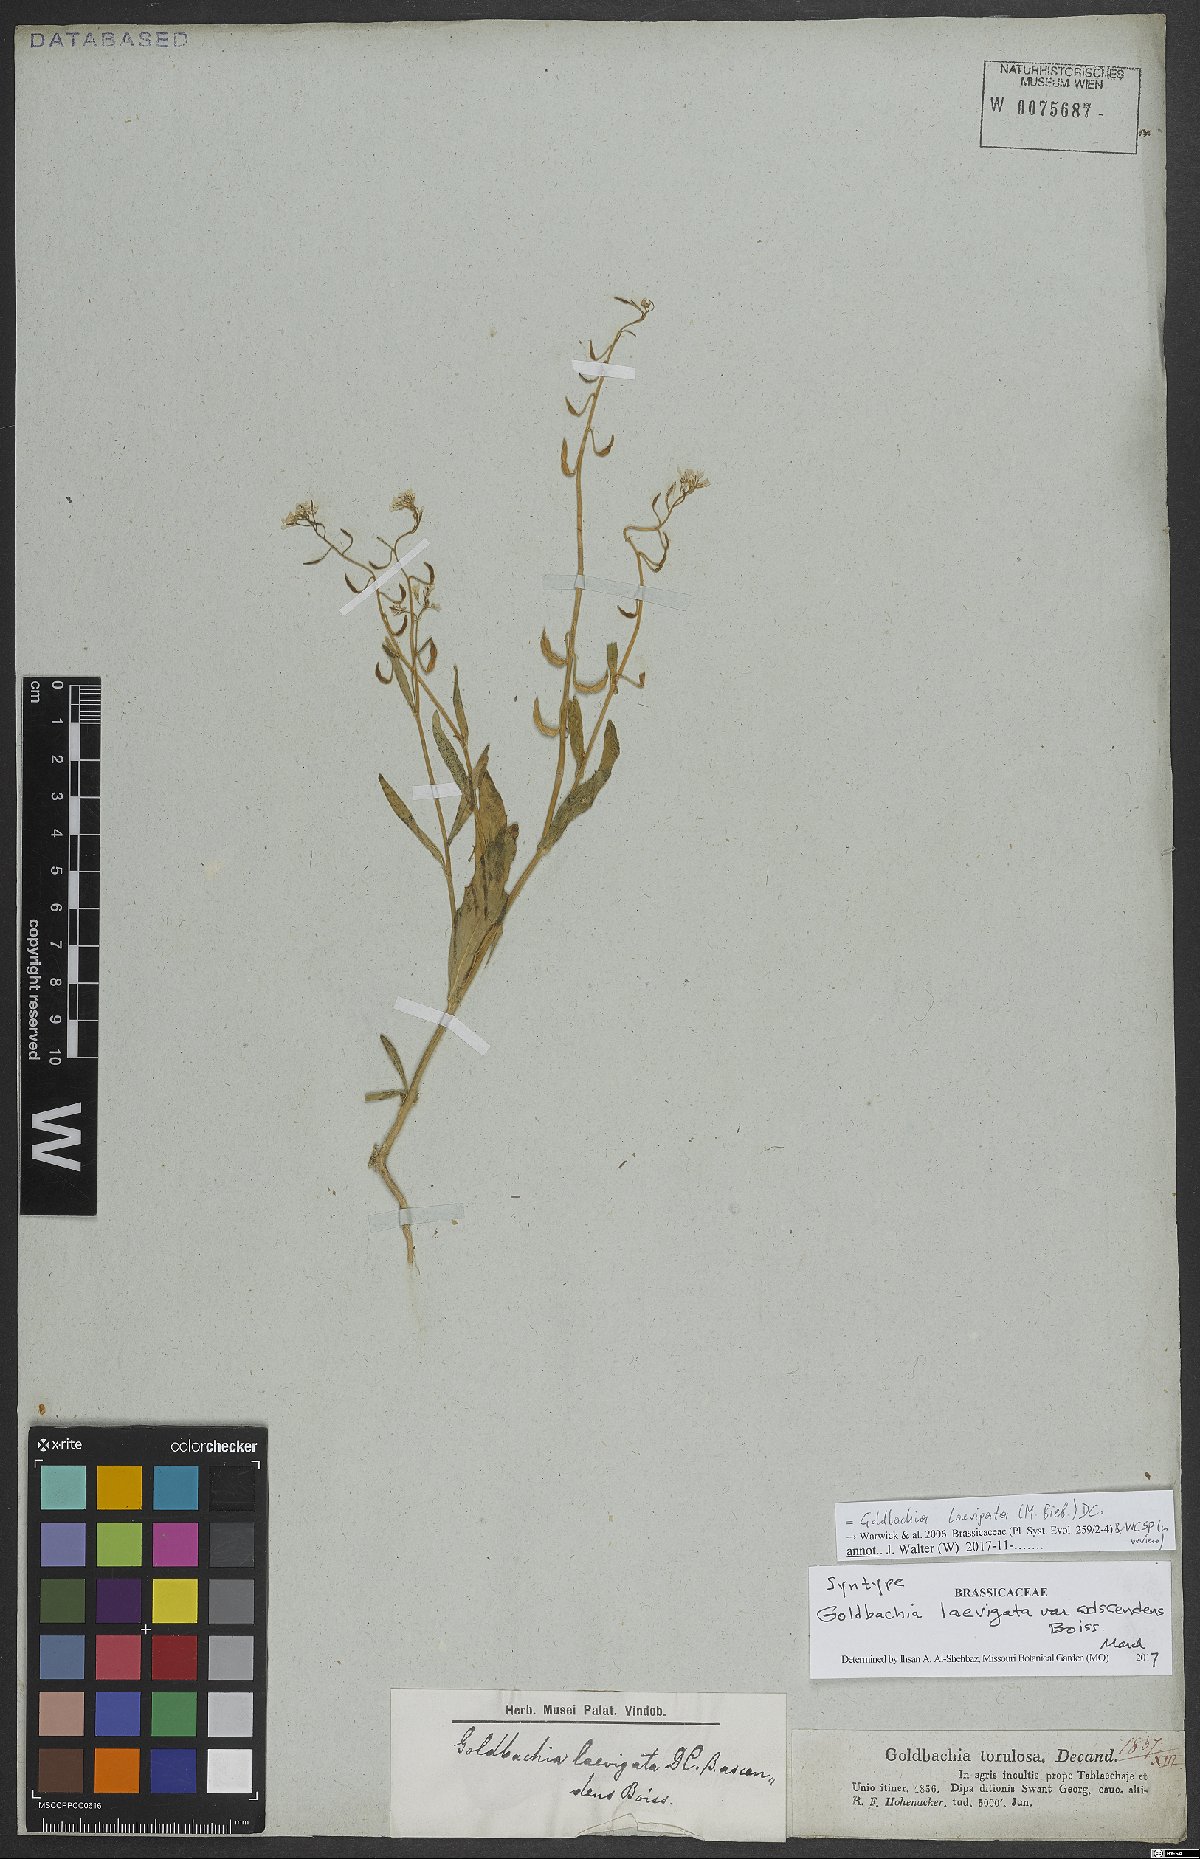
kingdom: Plantae
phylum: Tracheophyta
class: Magnoliopsida
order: Brassicales
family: Brassicaceae
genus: Goldbachia
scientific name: Goldbachia laevigata
